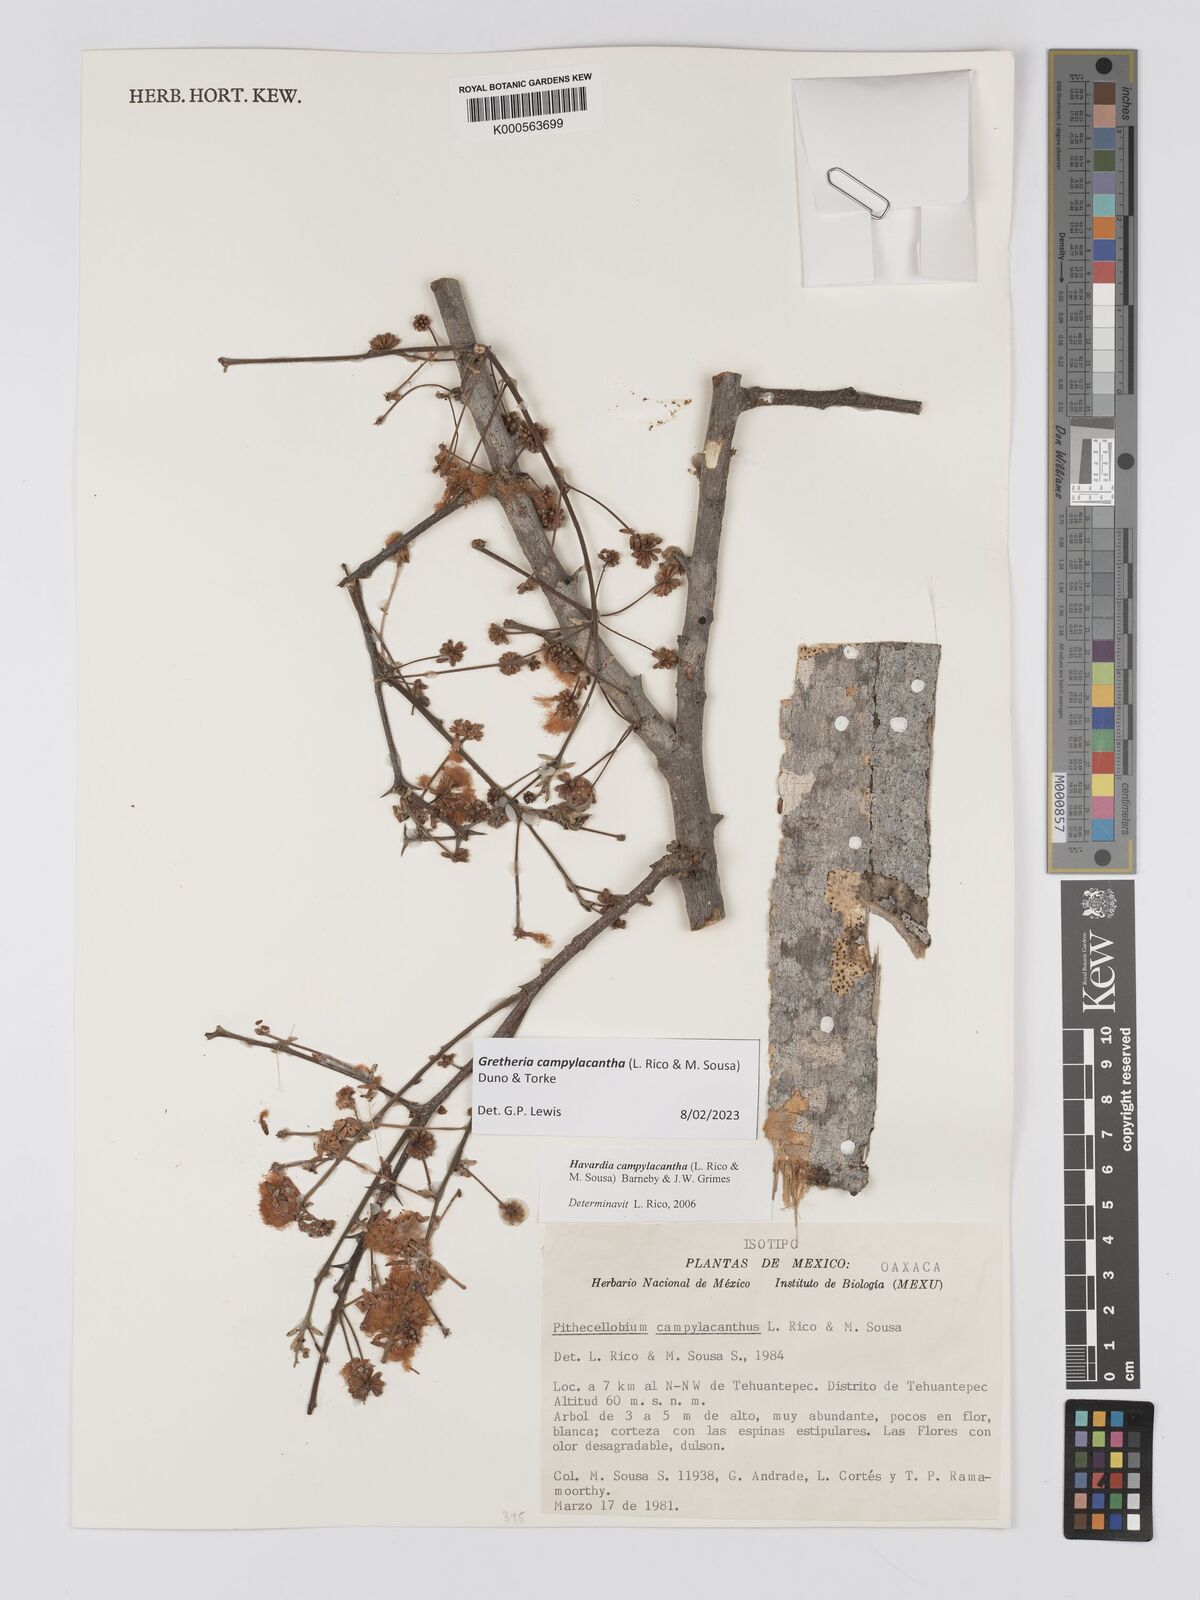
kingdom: Plantae
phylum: Tracheophyta
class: Magnoliopsida
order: Fabales
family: Fabaceae
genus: Havardia
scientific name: Havardia campylacantha
